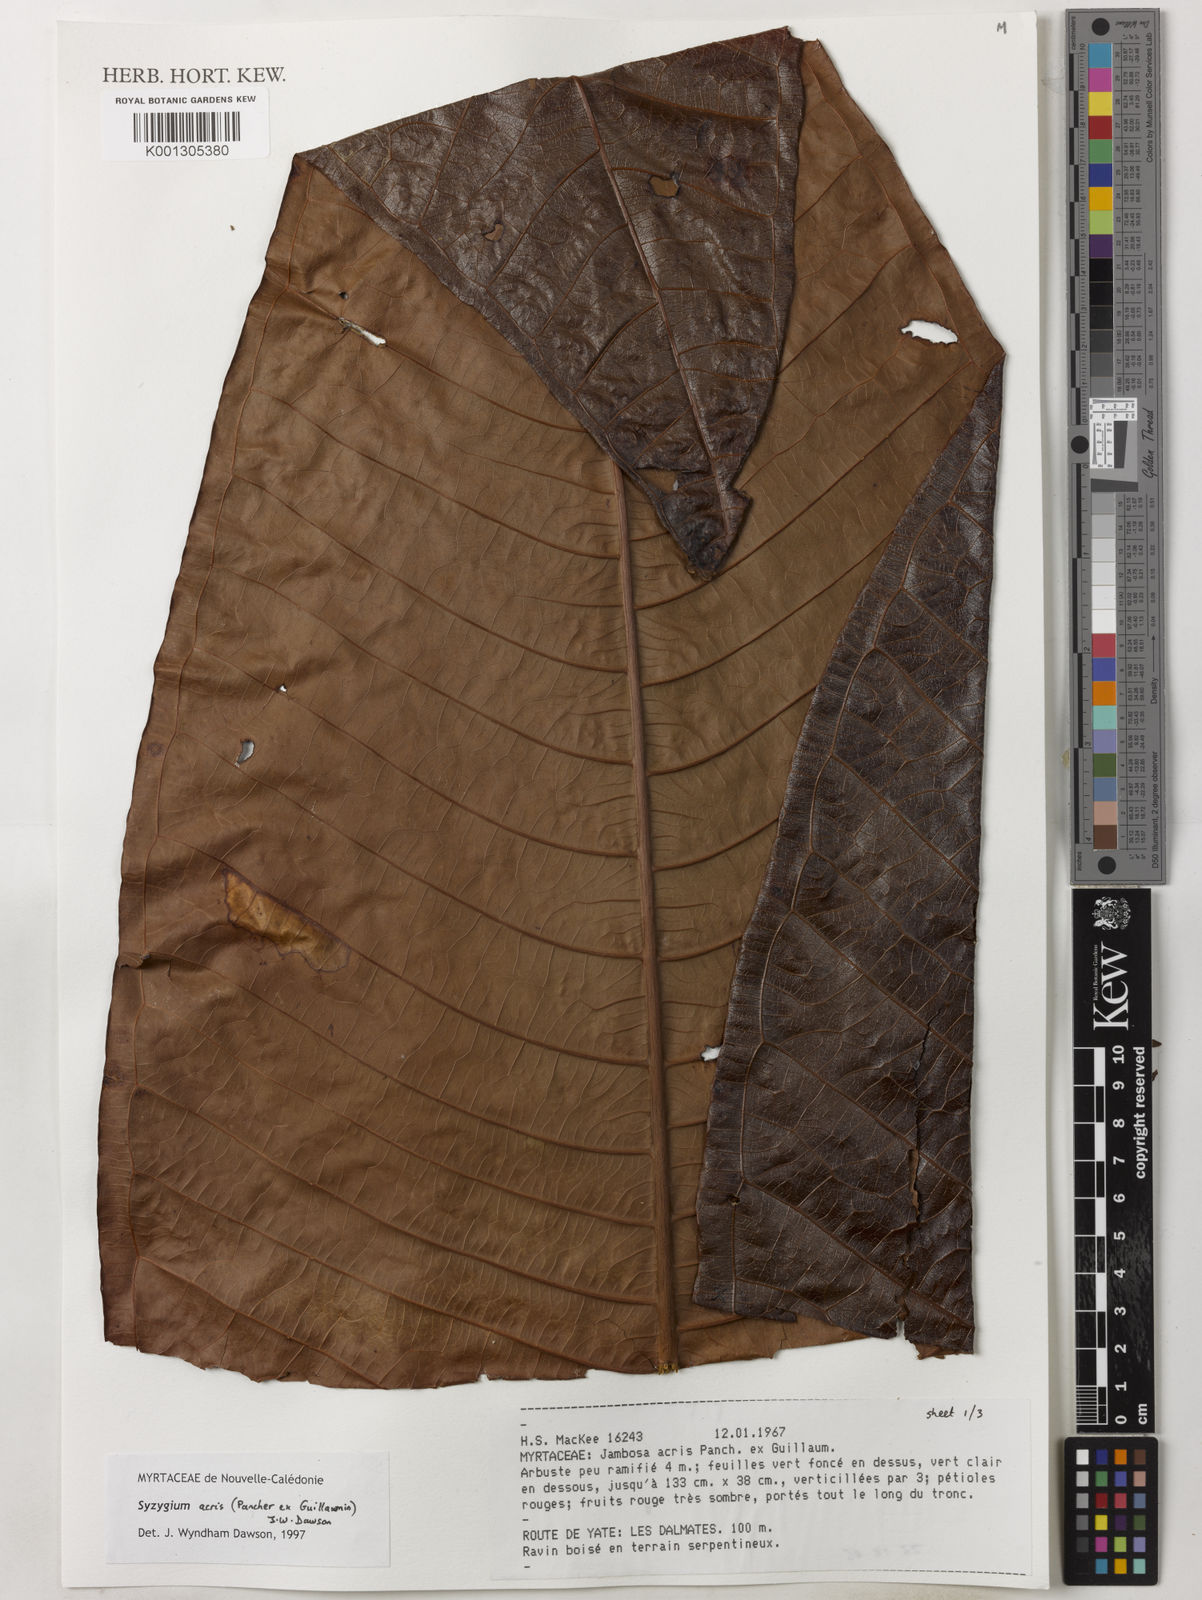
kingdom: Plantae
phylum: Tracheophyta
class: Magnoliopsida
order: Myrtales
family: Myrtaceae
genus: Syzygium
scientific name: Syzygium
